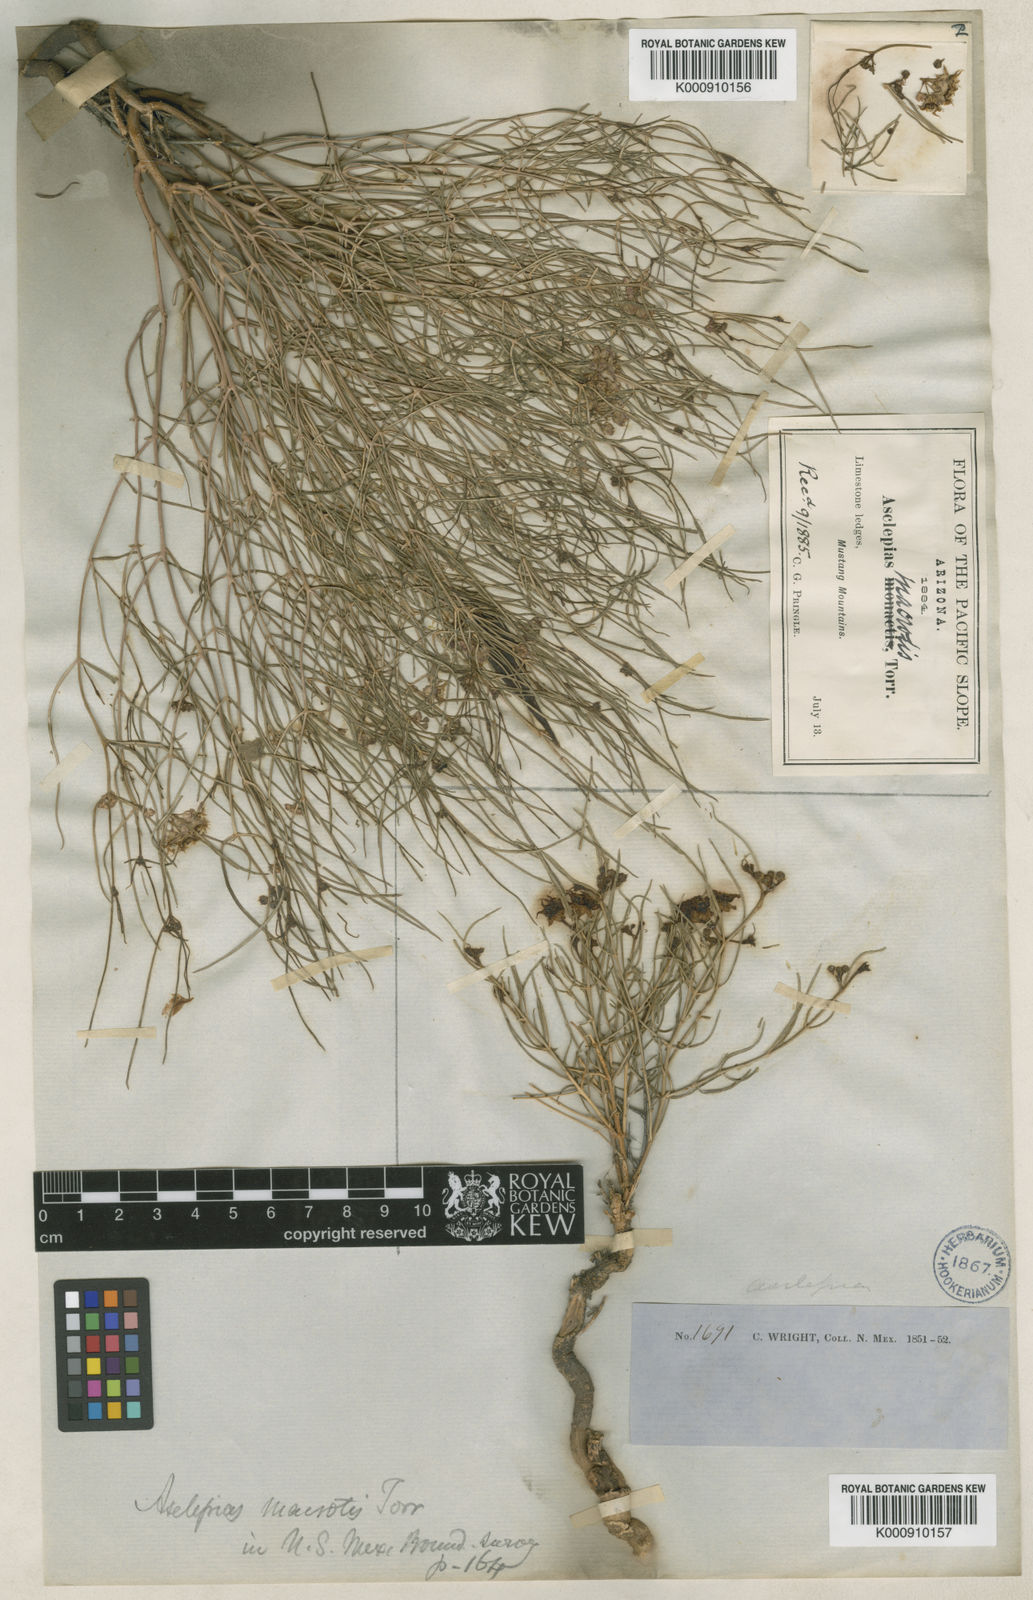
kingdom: Plantae
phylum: Tracheophyta
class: Magnoliopsida
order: Gentianales
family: Apocynaceae
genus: Asclepias
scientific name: Asclepias macrotis
